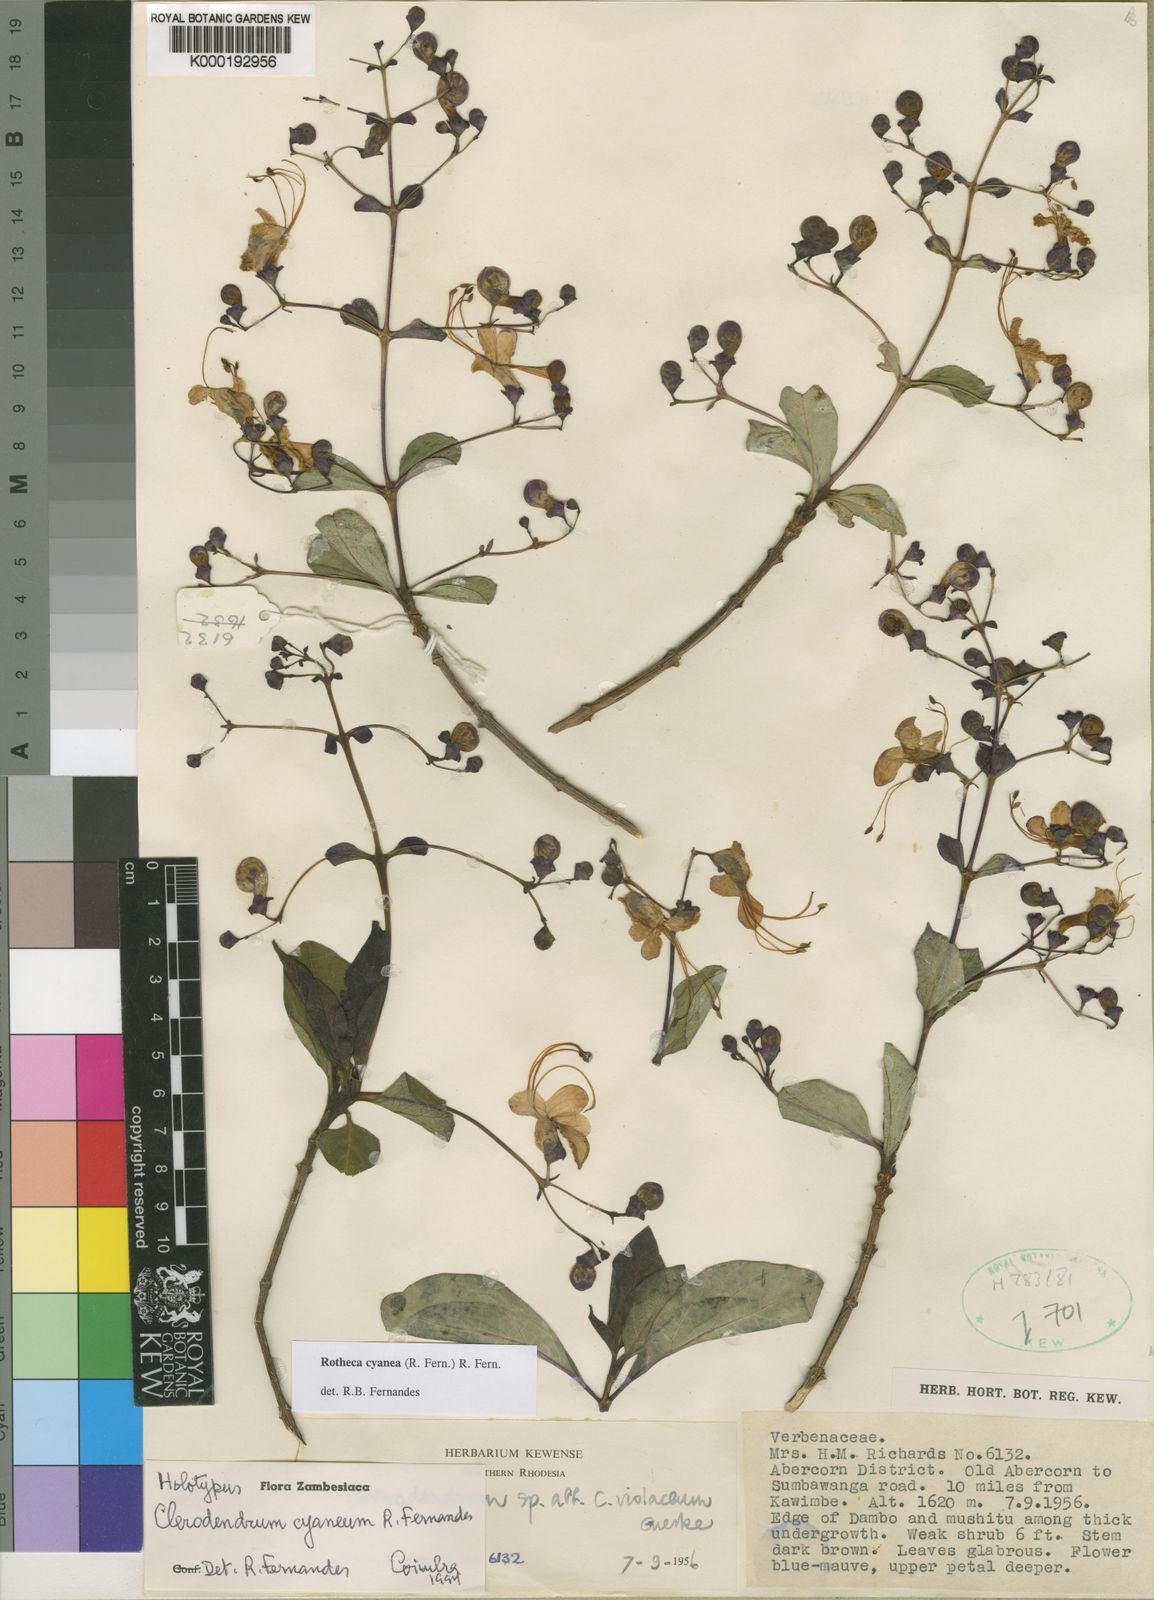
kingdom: Plantae
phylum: Tracheophyta
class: Magnoliopsida
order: Lamiales
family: Lamiaceae
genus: Rotheca
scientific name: Rotheca cyanea
